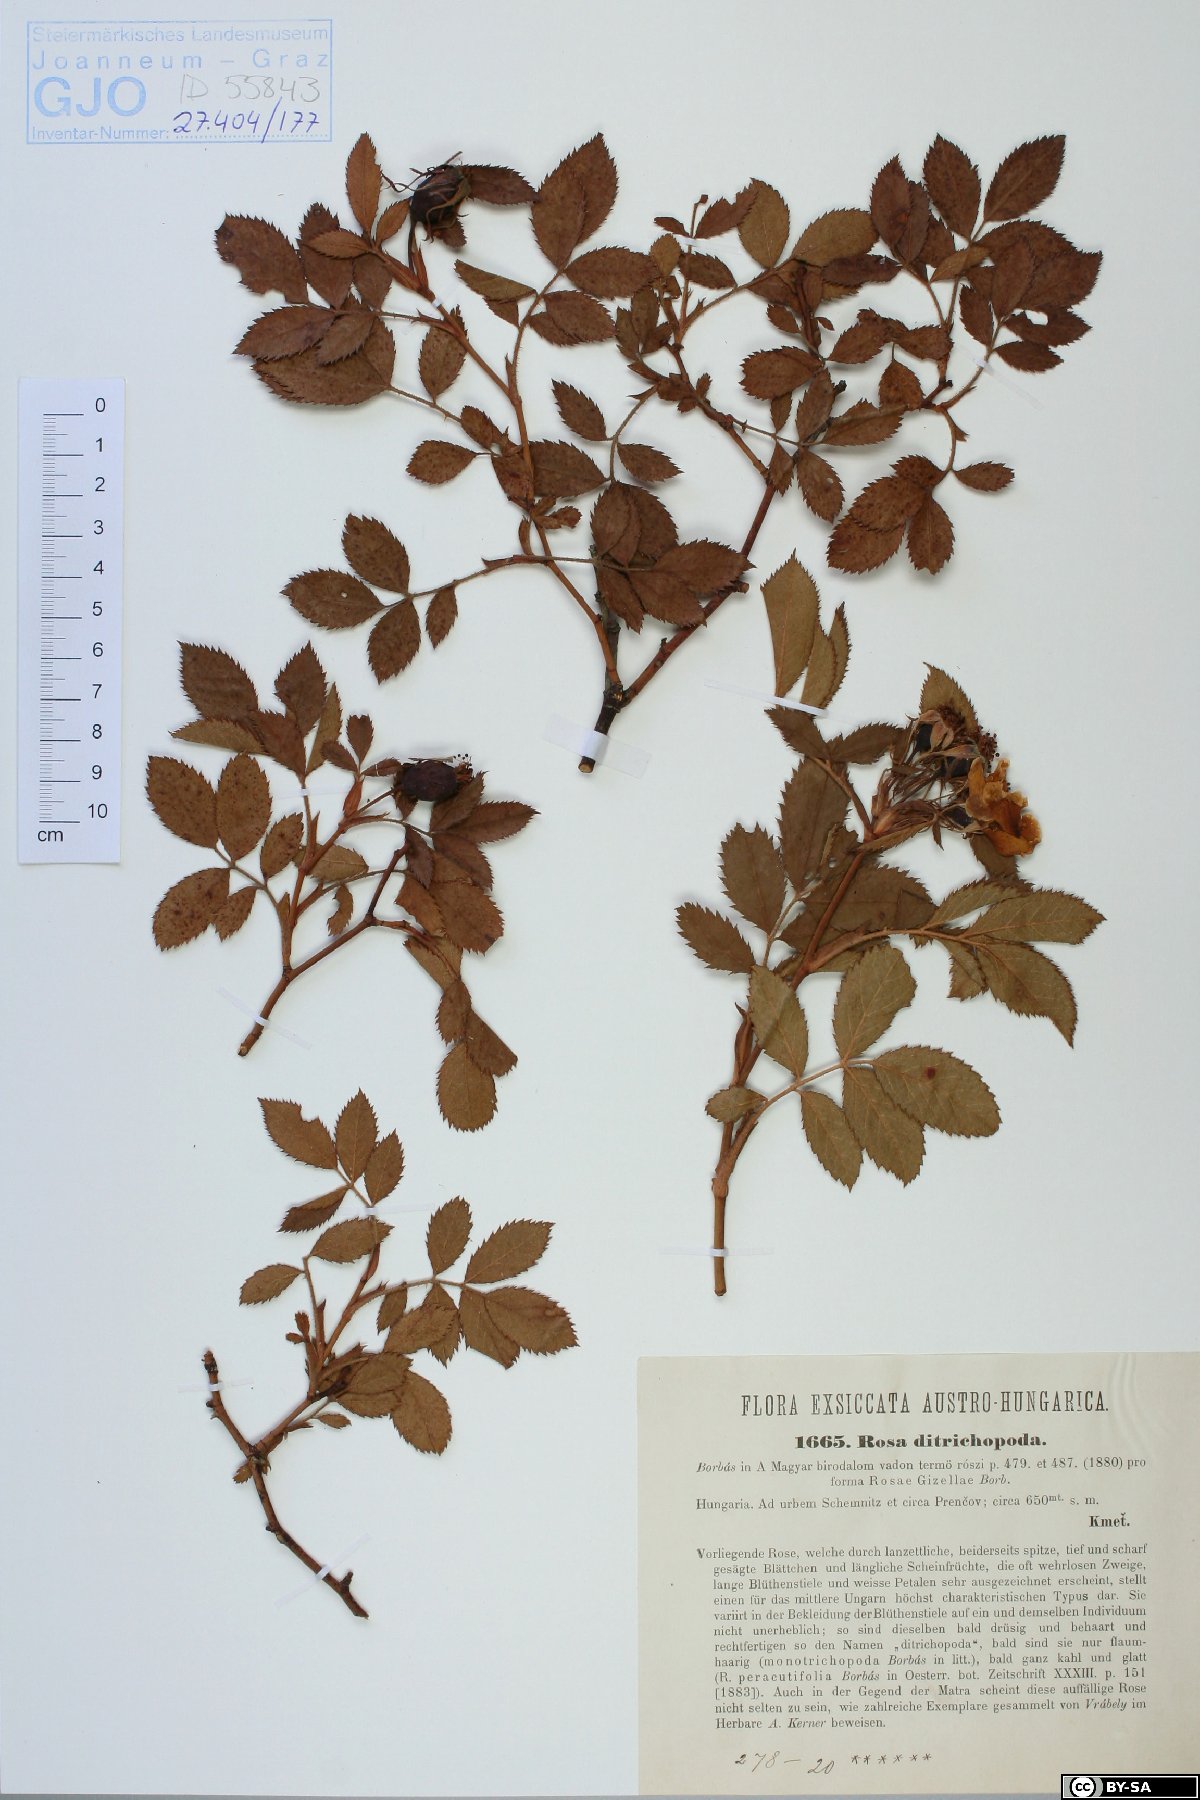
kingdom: Plantae
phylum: Tracheophyta
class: Magnoliopsida
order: Rosales
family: Rosaceae
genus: Rosa
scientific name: Rosa agrestis
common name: Fieldbriar
